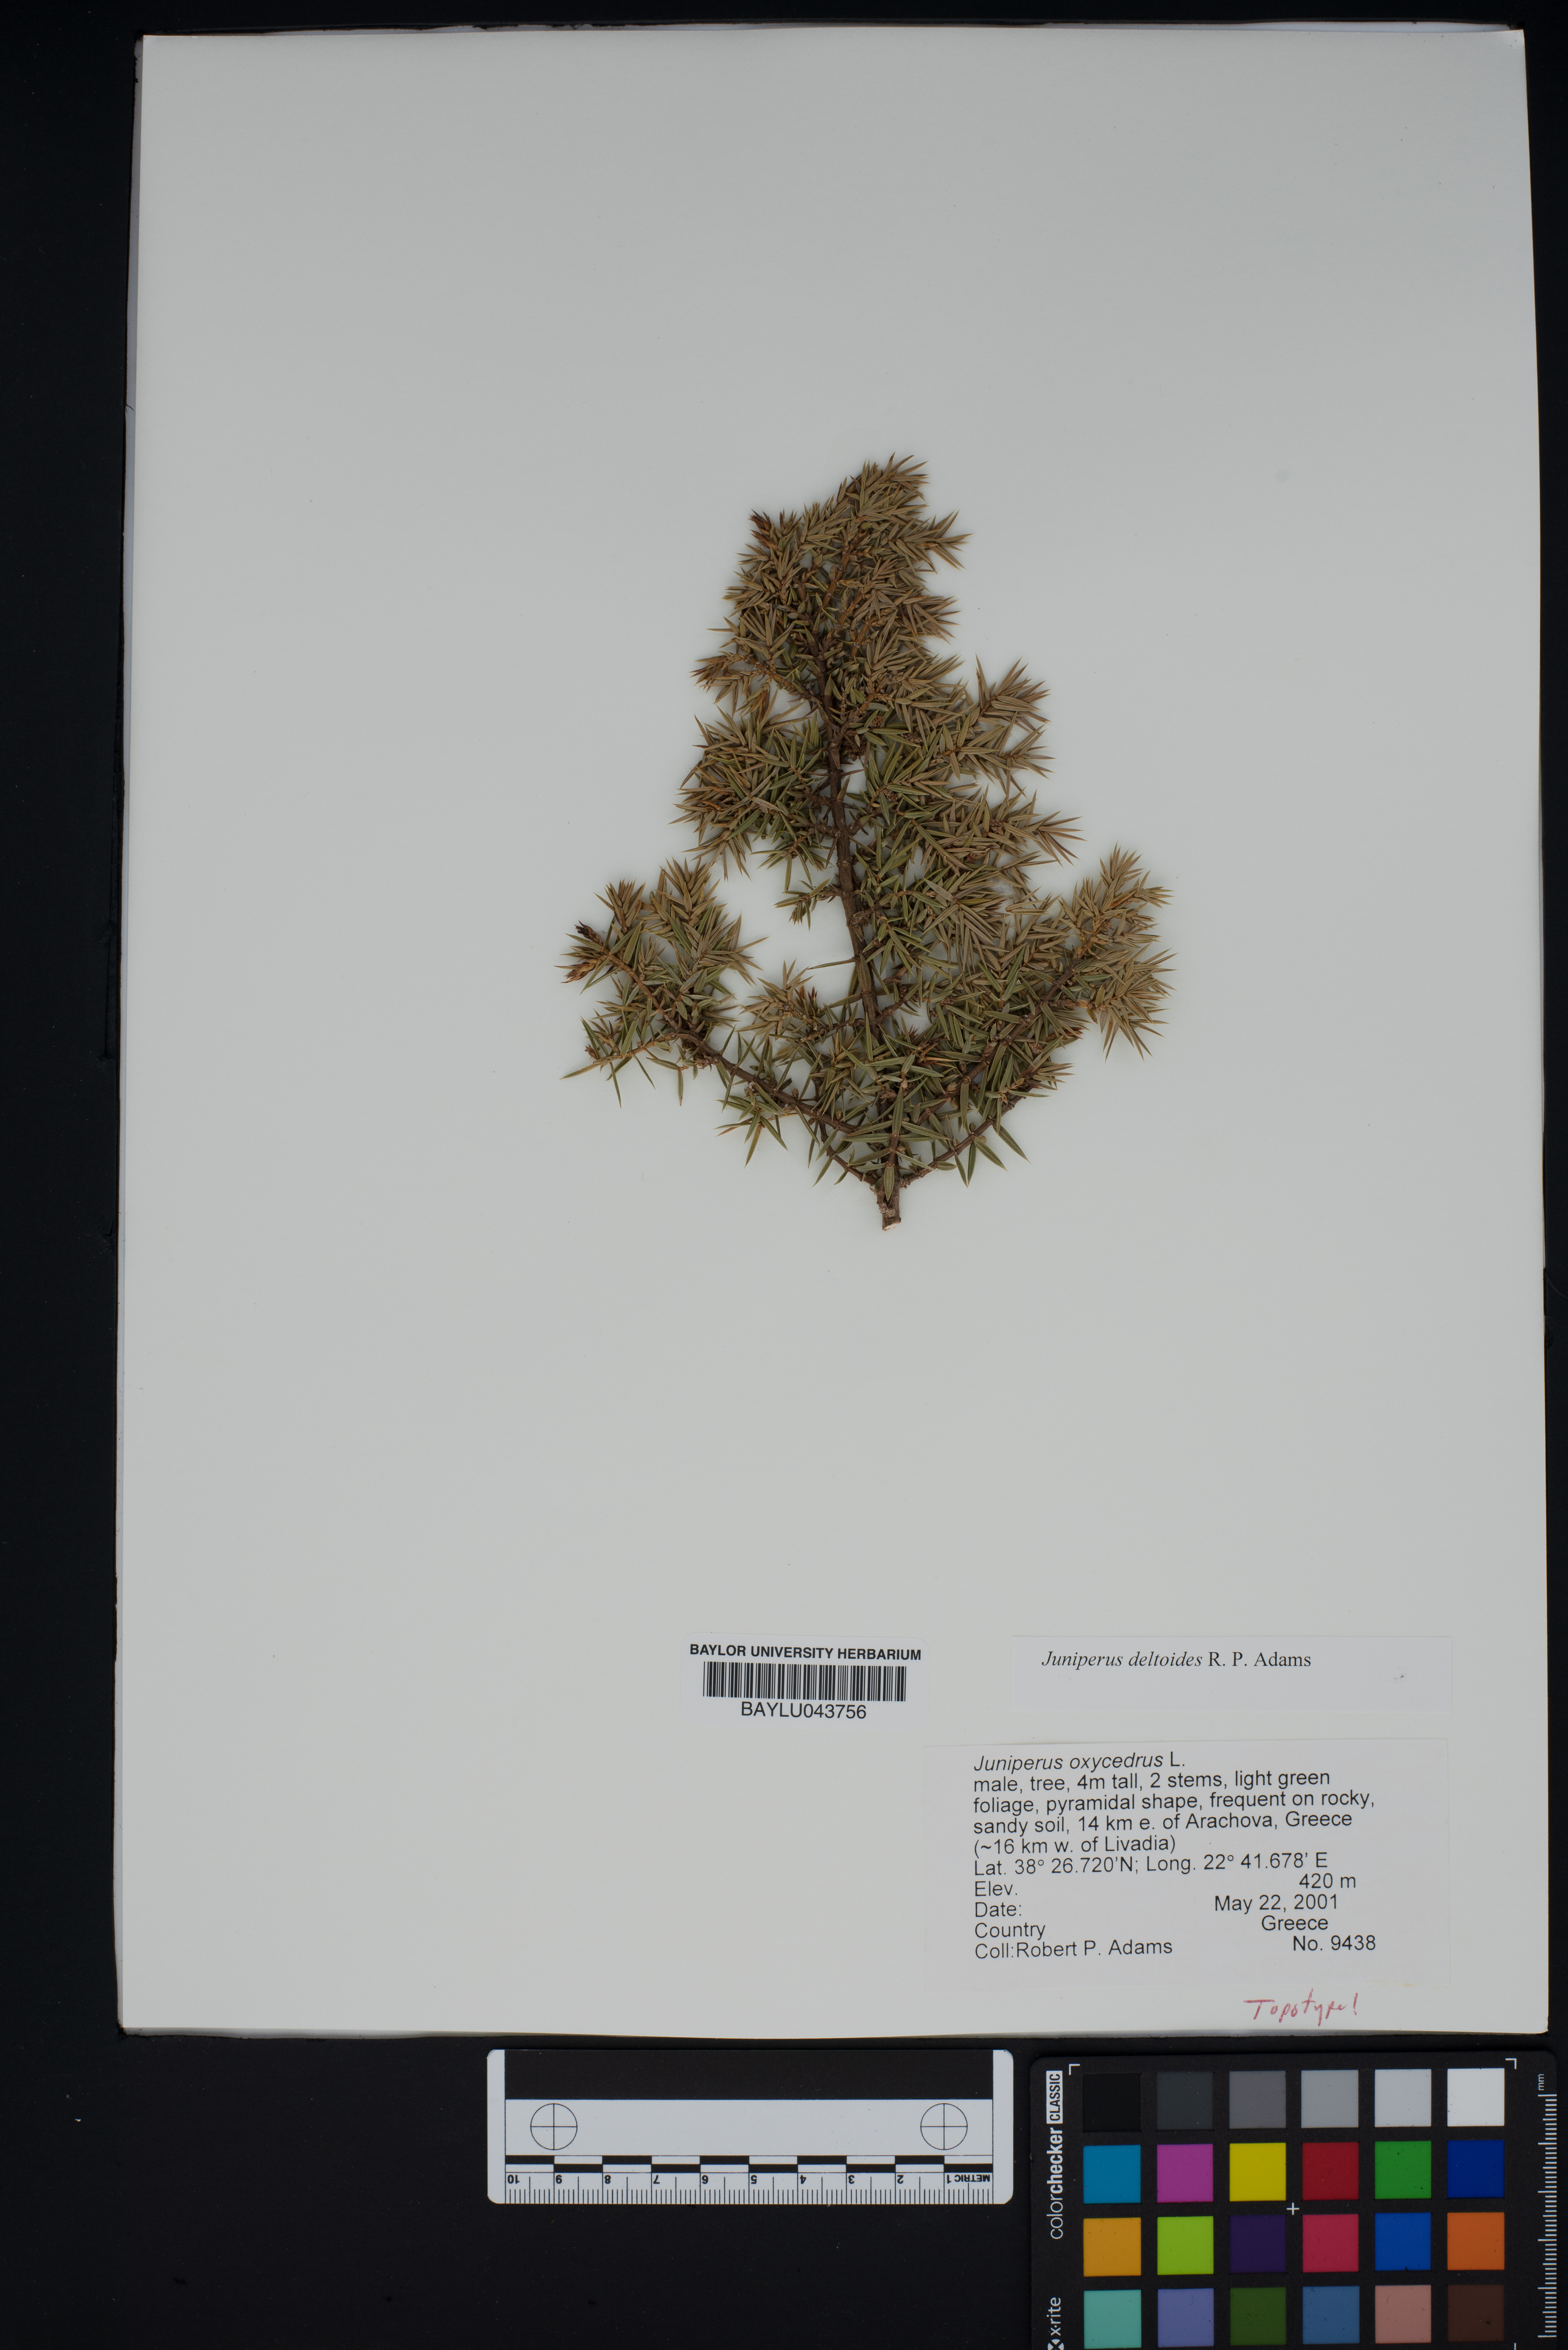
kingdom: Plantae
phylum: Tracheophyta
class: Pinopsida
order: Pinales
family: Cupressaceae
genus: Juniperus
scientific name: Juniperus oxycedrus
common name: Prickly juniper
